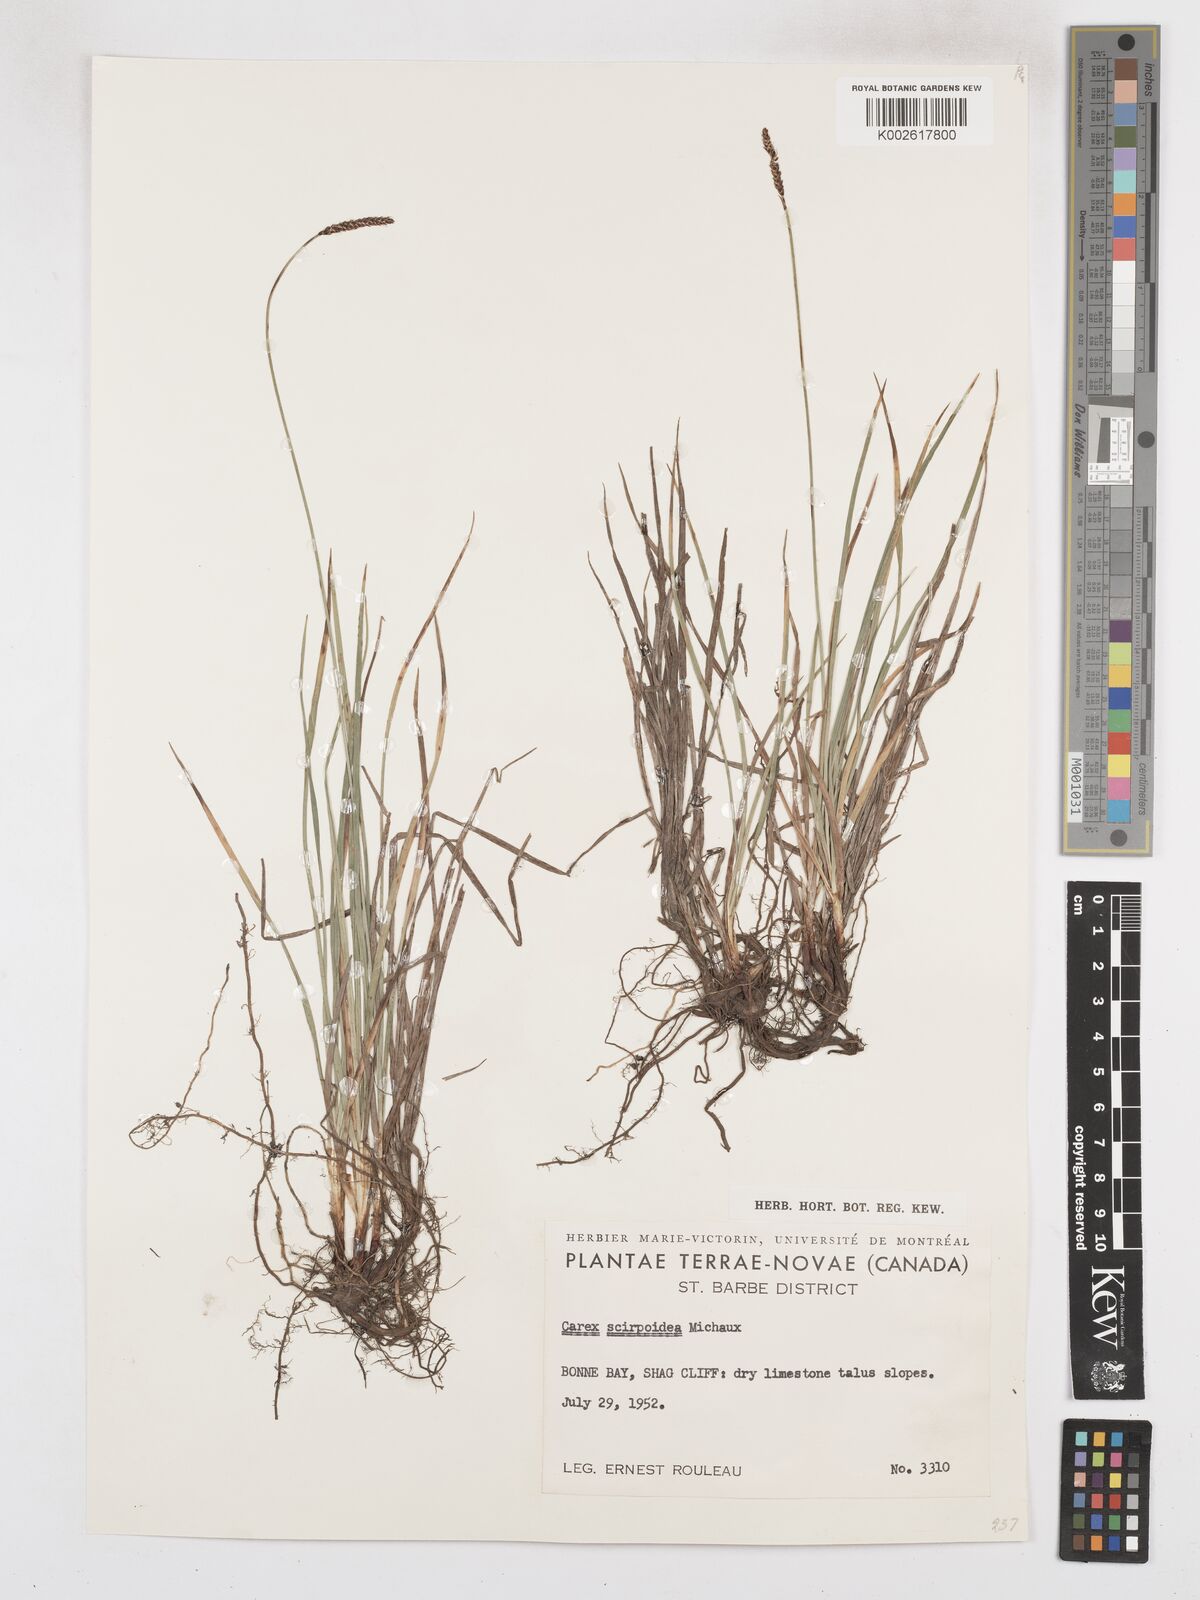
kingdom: Plantae
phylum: Tracheophyta
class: Liliopsida
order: Poales
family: Cyperaceae
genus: Carex
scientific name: Carex scirpoidea
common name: Canada single-spike sedge
